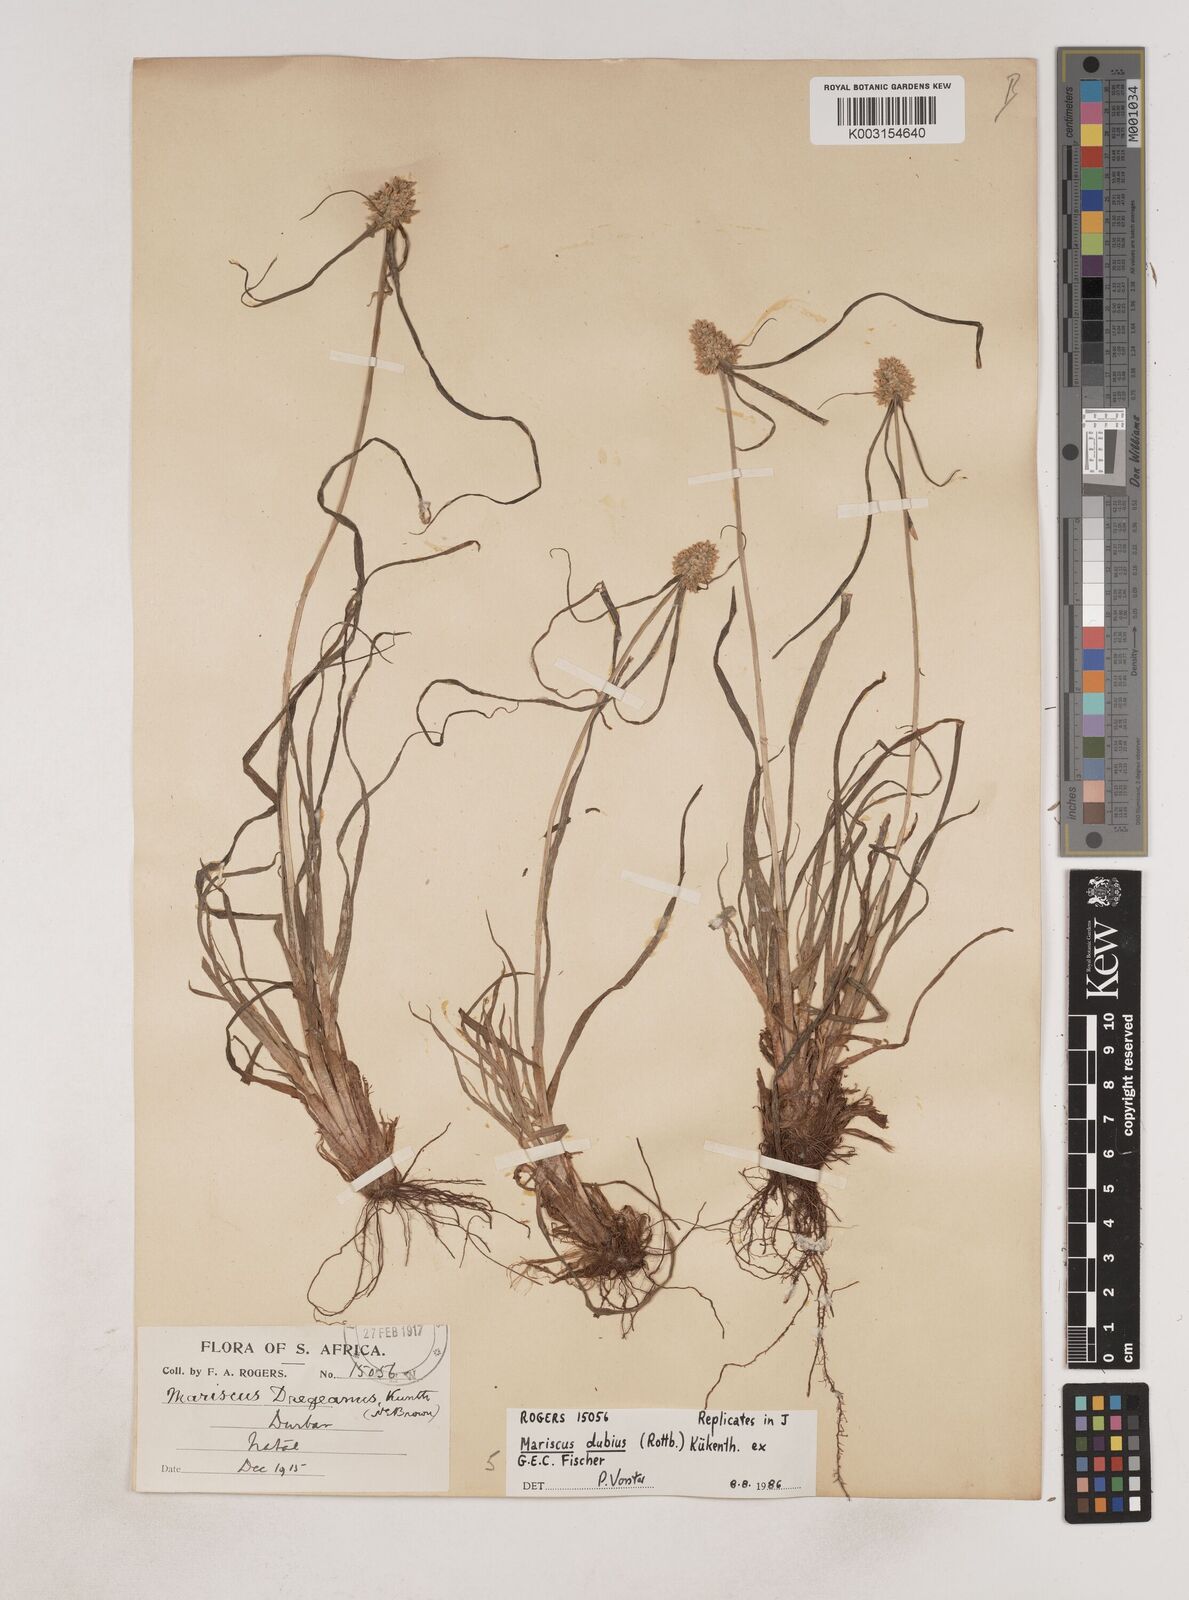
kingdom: Plantae
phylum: Tracheophyta
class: Liliopsida
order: Poales
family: Cyperaceae
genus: Cyperus
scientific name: Cyperus dubius
